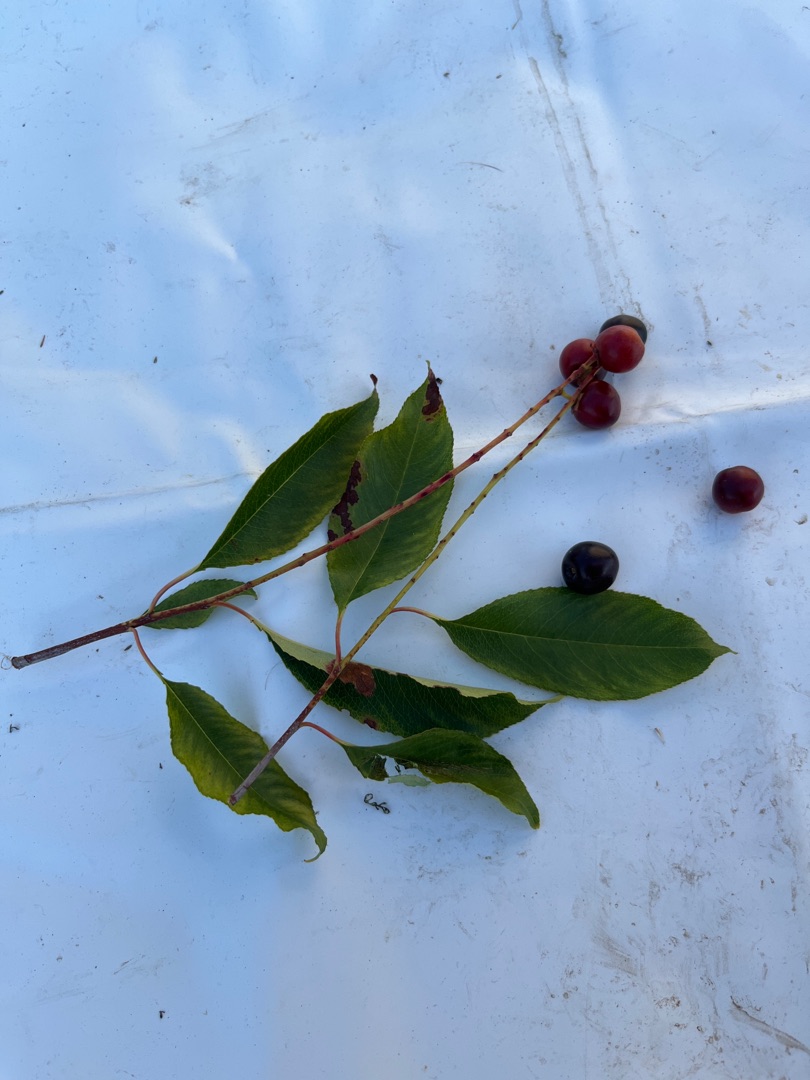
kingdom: Plantae
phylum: Tracheophyta
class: Magnoliopsida
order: Rosales
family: Rosaceae
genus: Prunus
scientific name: Prunus serotina
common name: Glansbladet hæg
